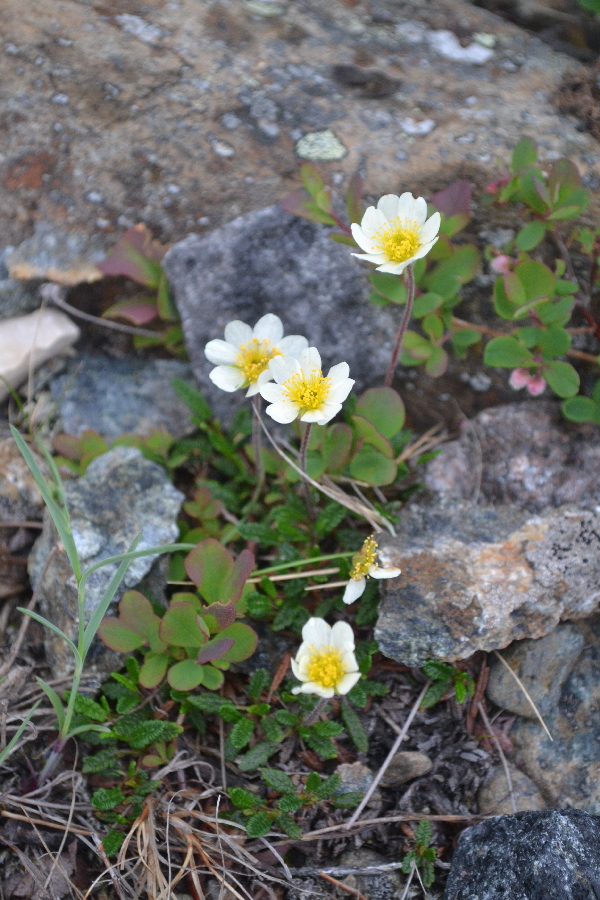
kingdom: Plantae
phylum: Tracheophyta
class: Magnoliopsida
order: Rosales
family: Rosaceae
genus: Dryas
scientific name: Dryas octopetala
